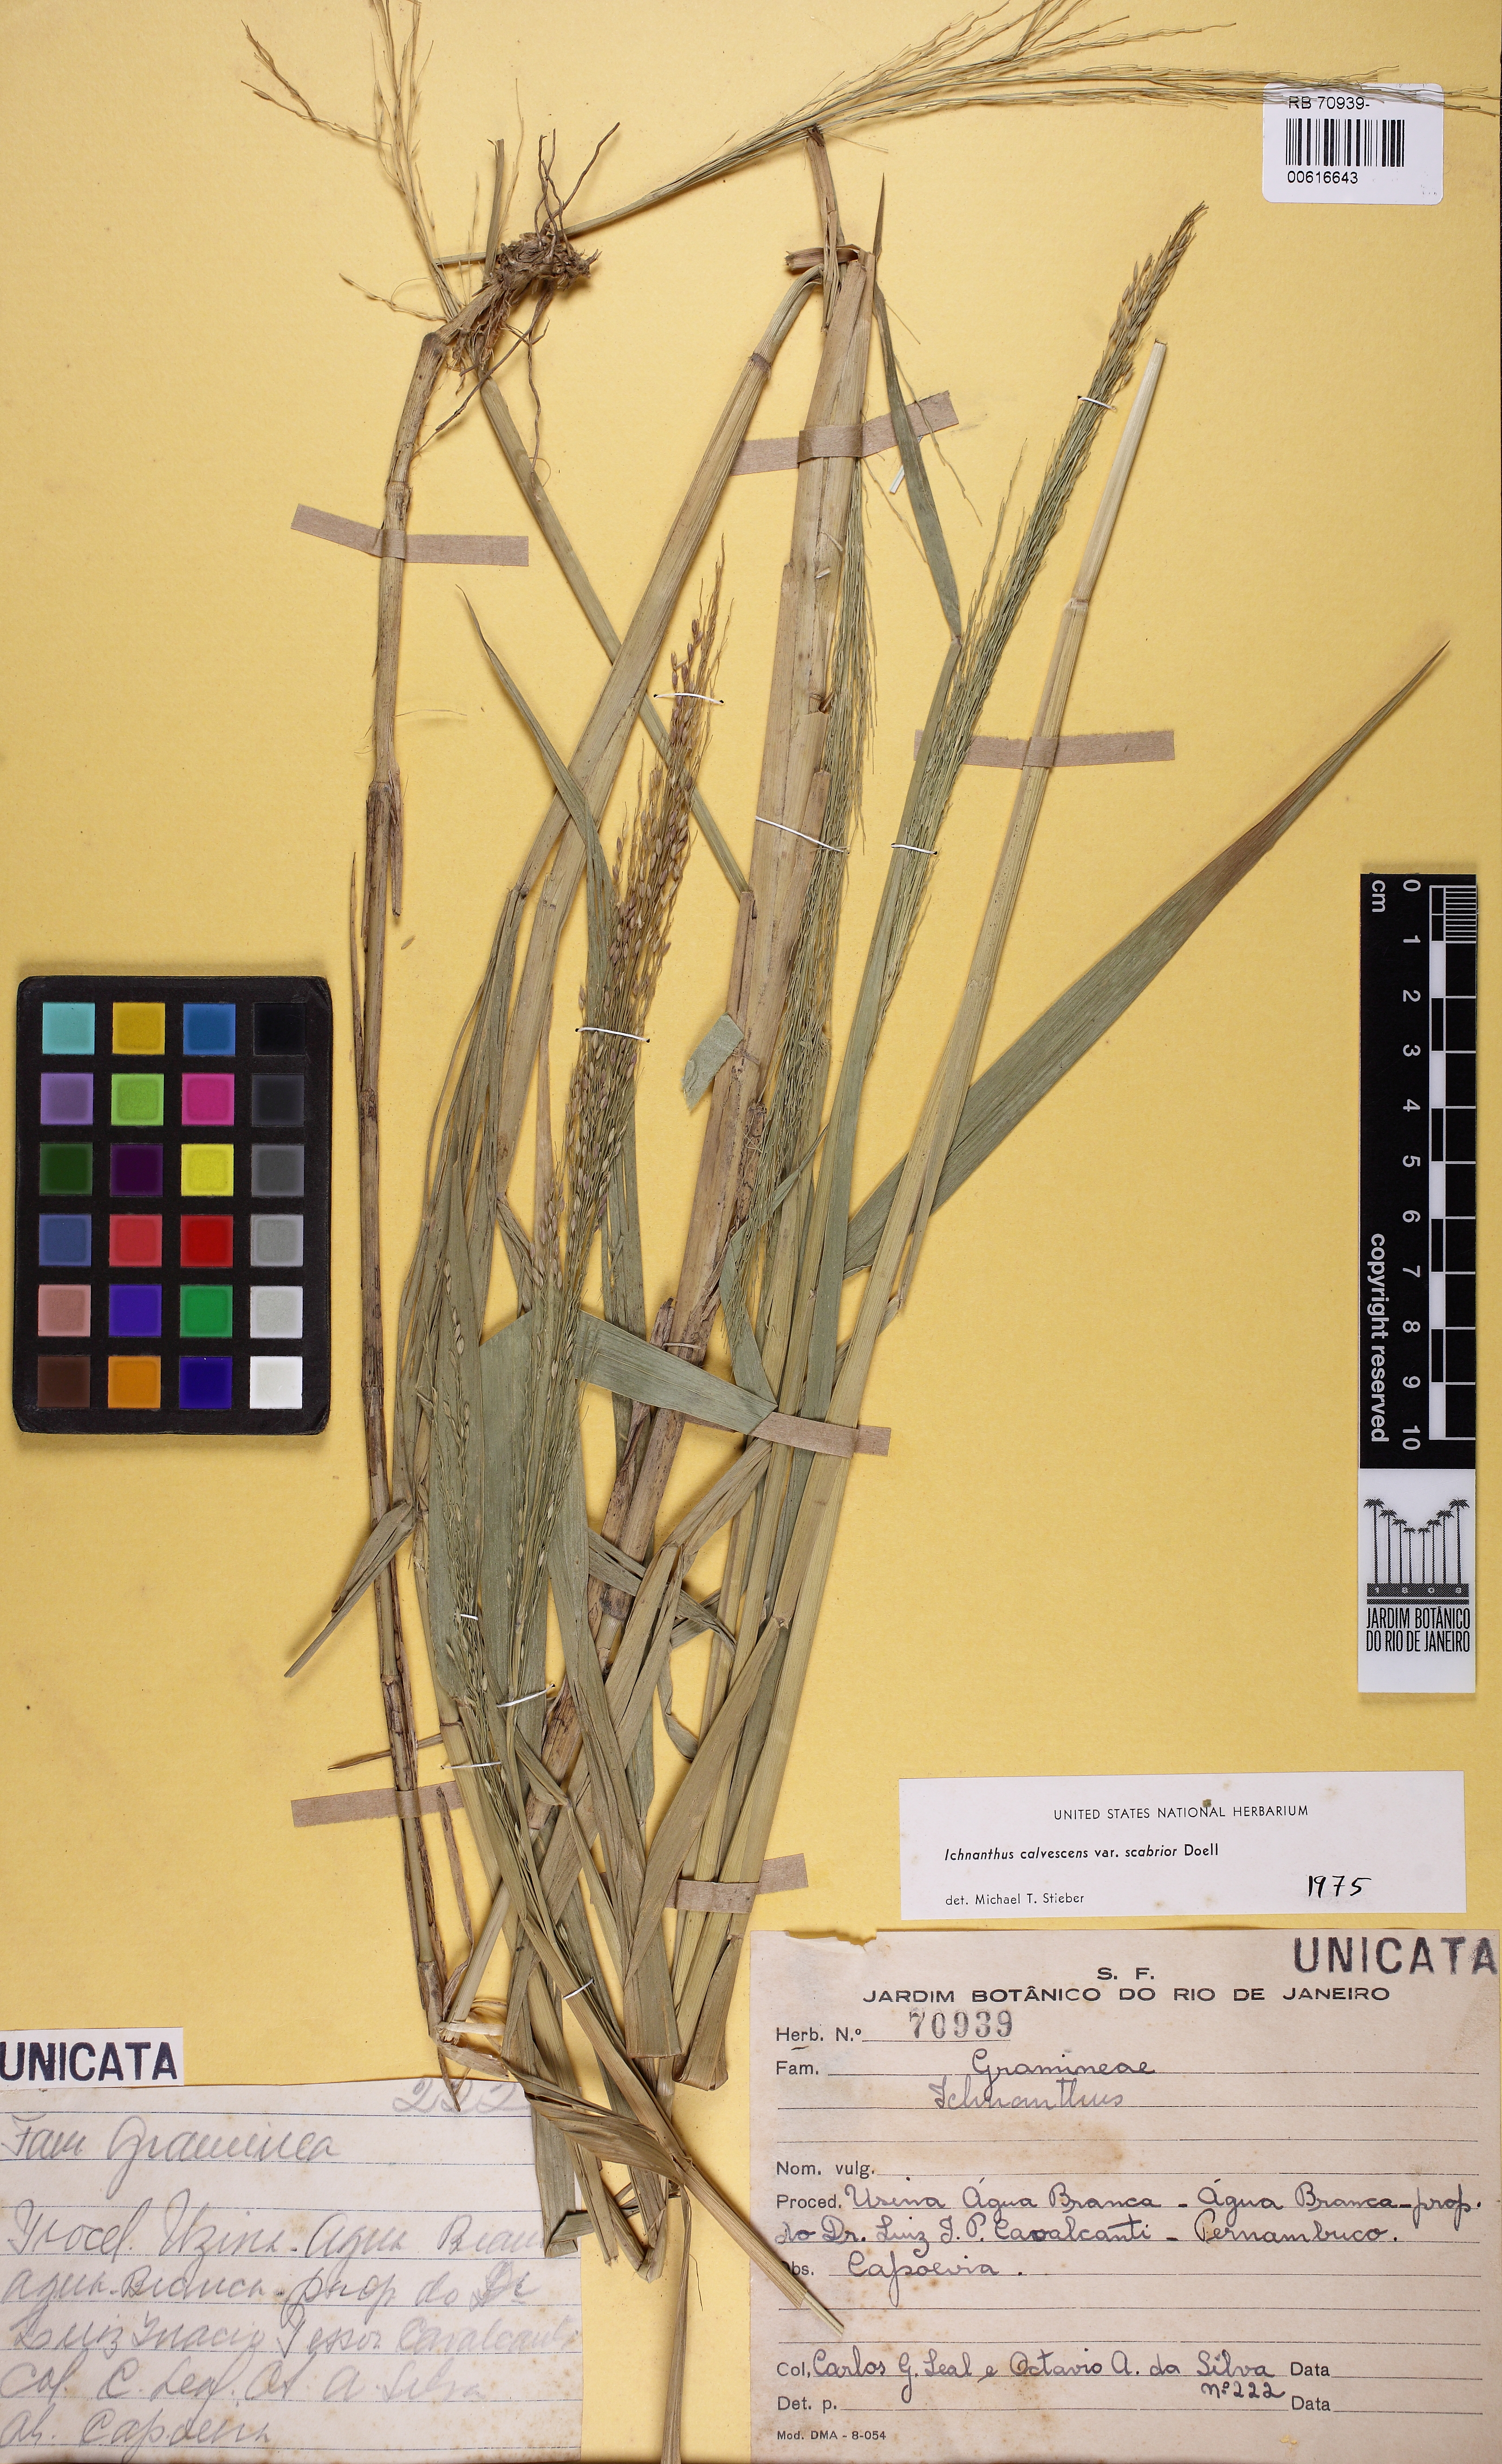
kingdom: Plantae
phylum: Tracheophyta
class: Liliopsida
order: Poales
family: Poaceae
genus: Ichnanthus
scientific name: Ichnanthus calvescens
